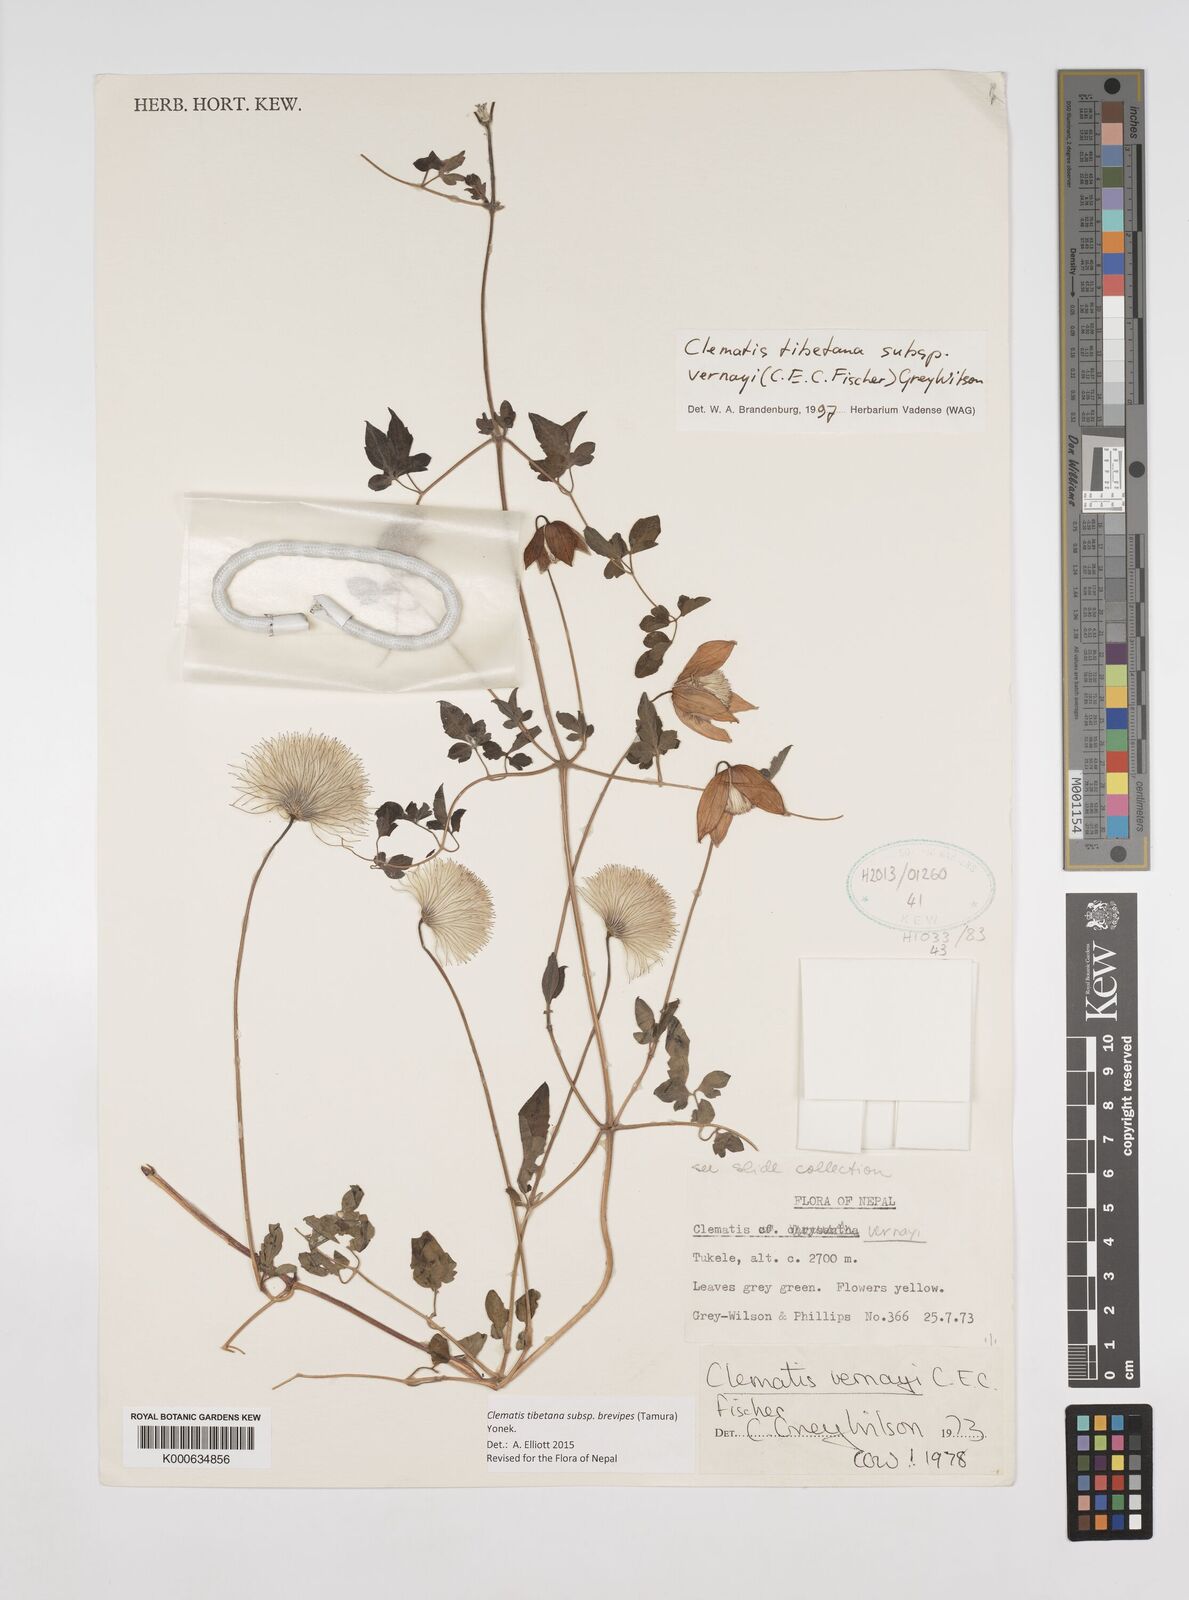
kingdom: Plantae
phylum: Tracheophyta
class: Magnoliopsida
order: Ranunculales
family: Ranunculaceae
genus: Clematis
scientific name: Clematis tibetana
